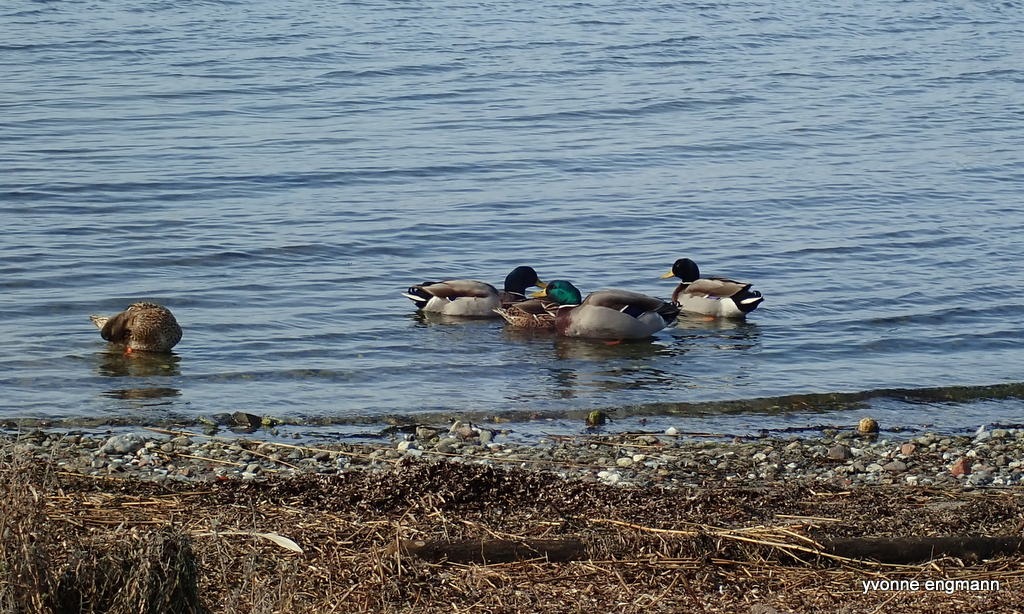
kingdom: Animalia
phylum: Chordata
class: Aves
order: Anseriformes
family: Anatidae
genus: Anas
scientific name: Anas platyrhynchos
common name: Gråand
